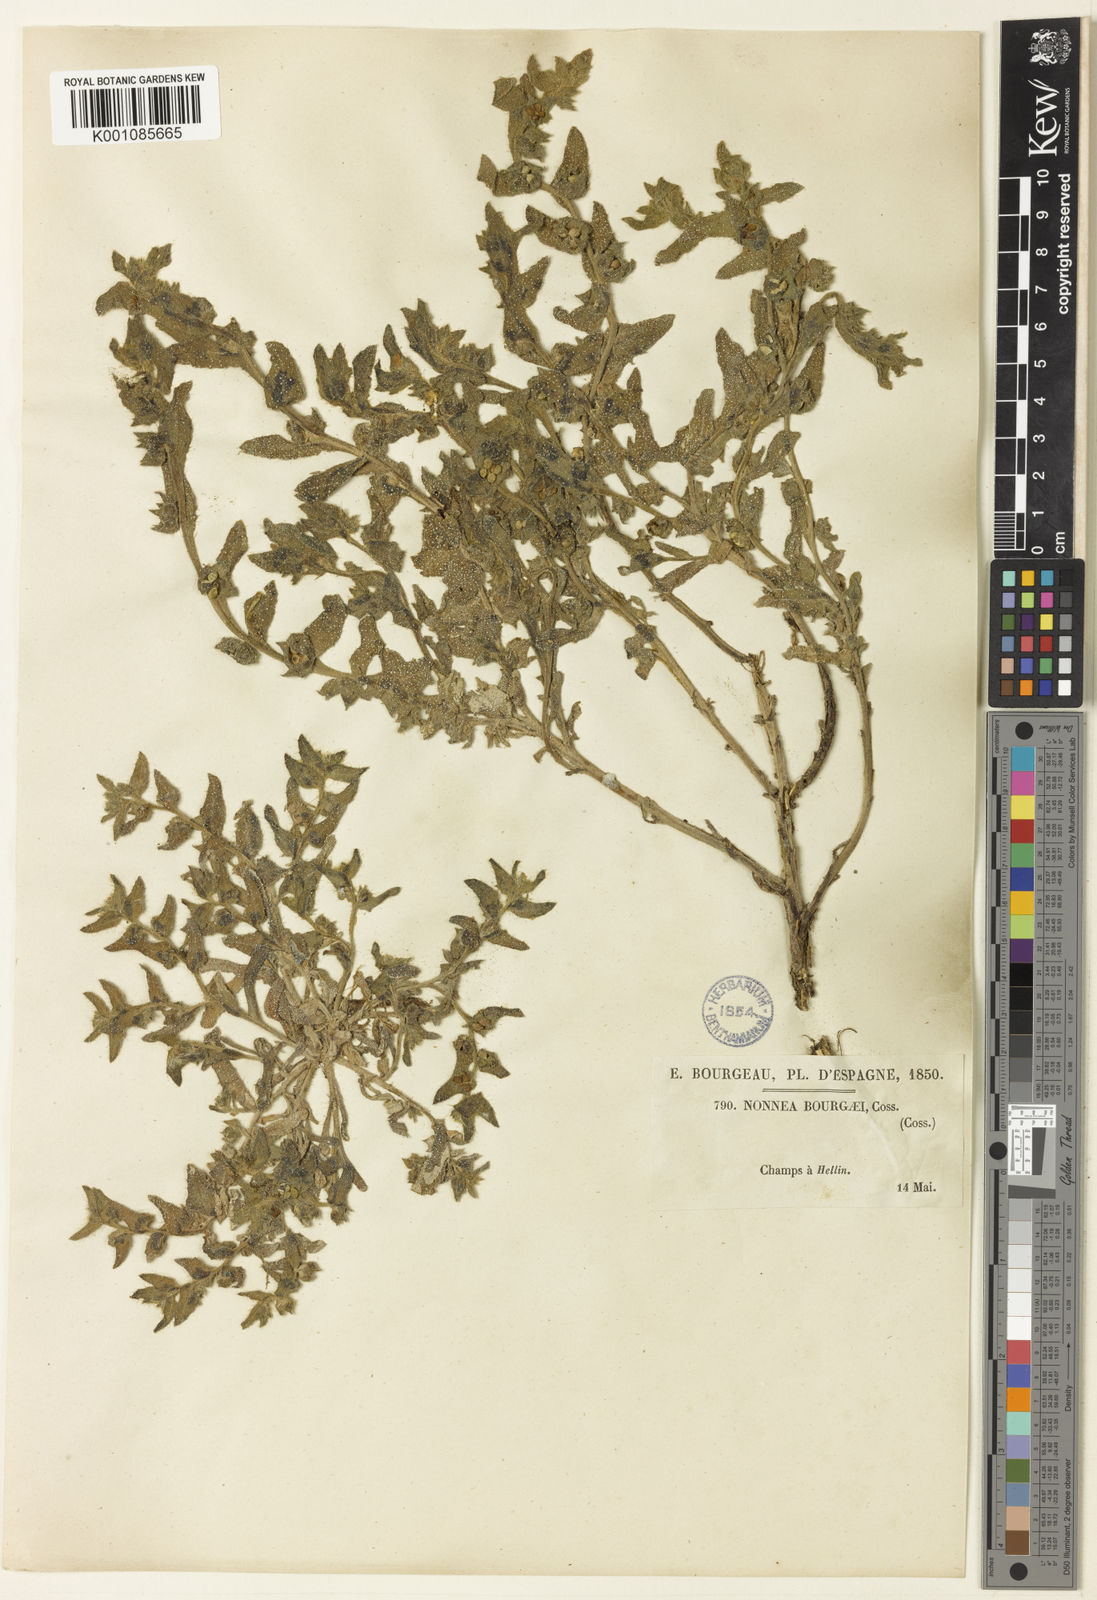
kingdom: Plantae
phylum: Tracheophyta
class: Magnoliopsida
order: Boraginales
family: Boraginaceae
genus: Nonea
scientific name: Nonea micrantha
